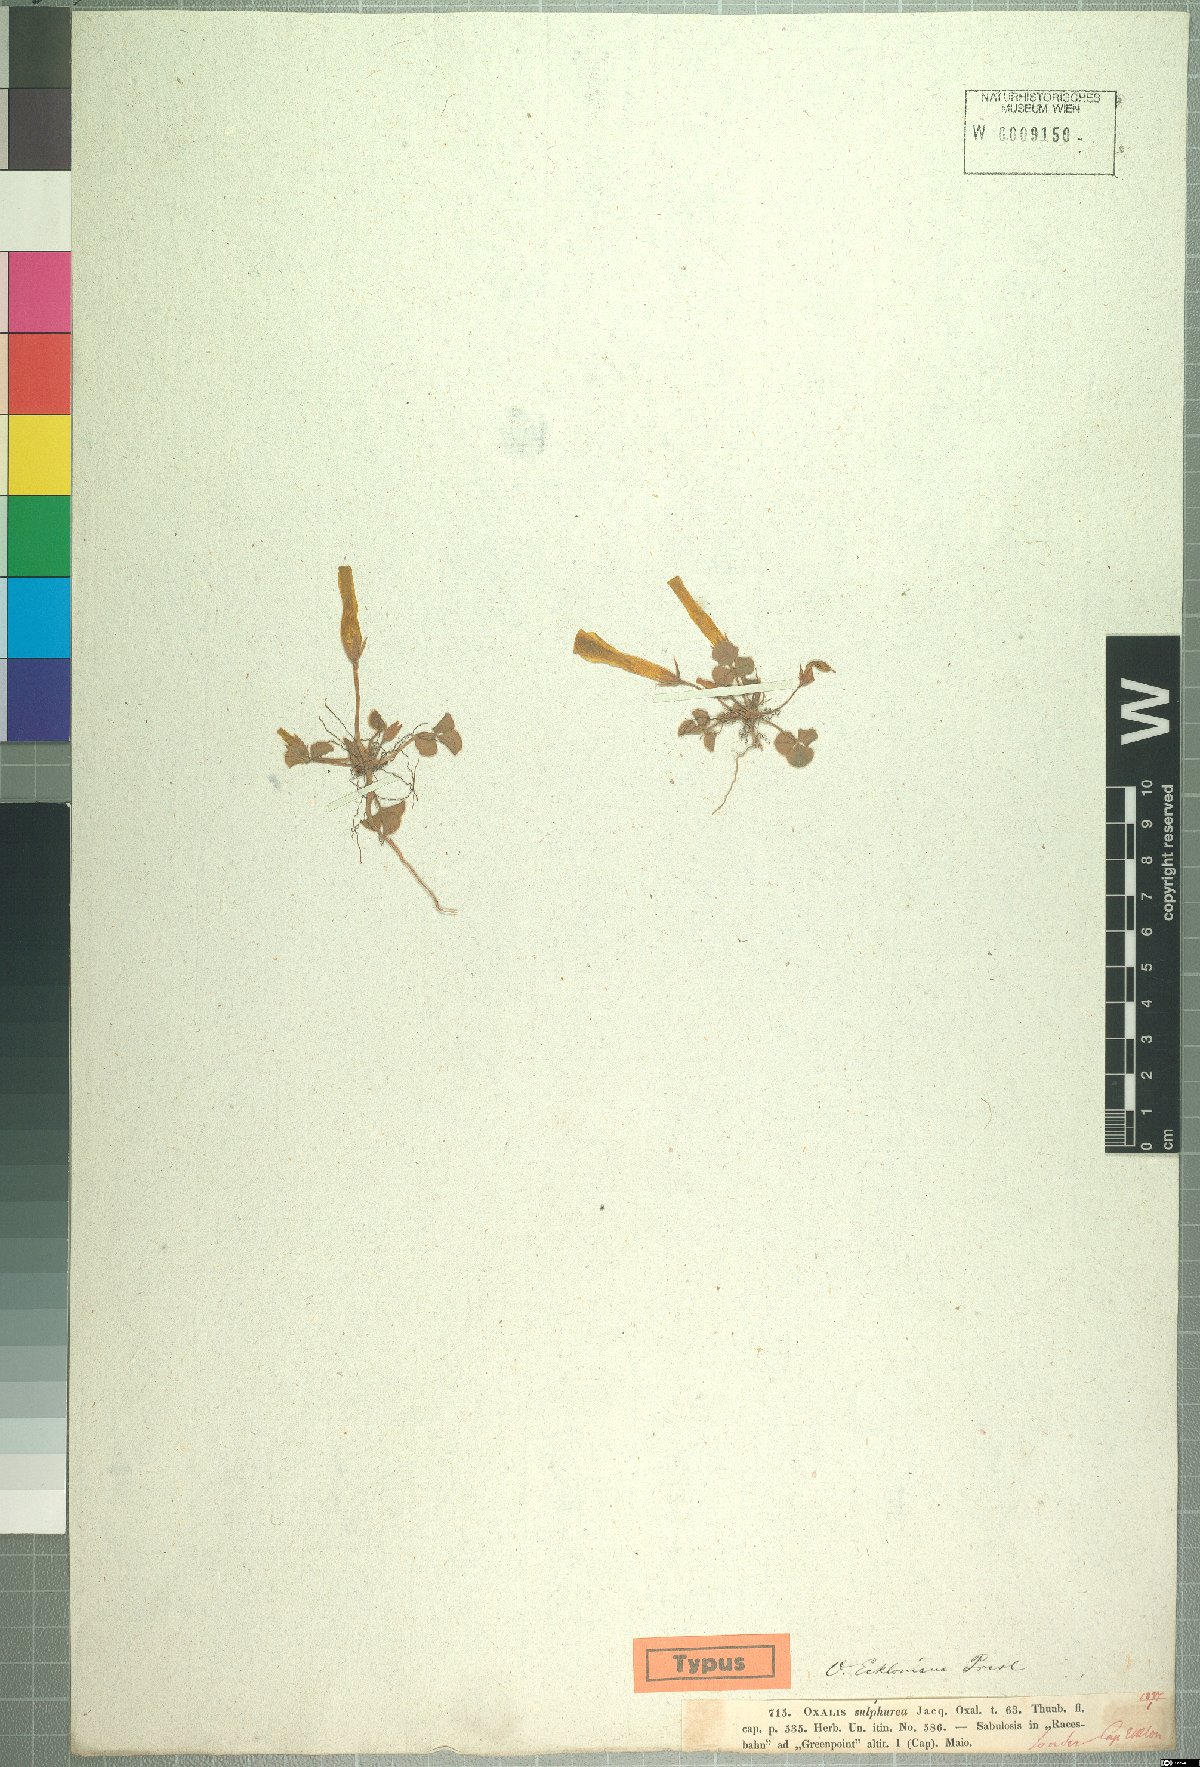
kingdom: Plantae
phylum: Tracheophyta
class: Magnoliopsida
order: Oxalidales
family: Oxalidaceae
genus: Oxalis
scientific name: Oxalis eckloniana
